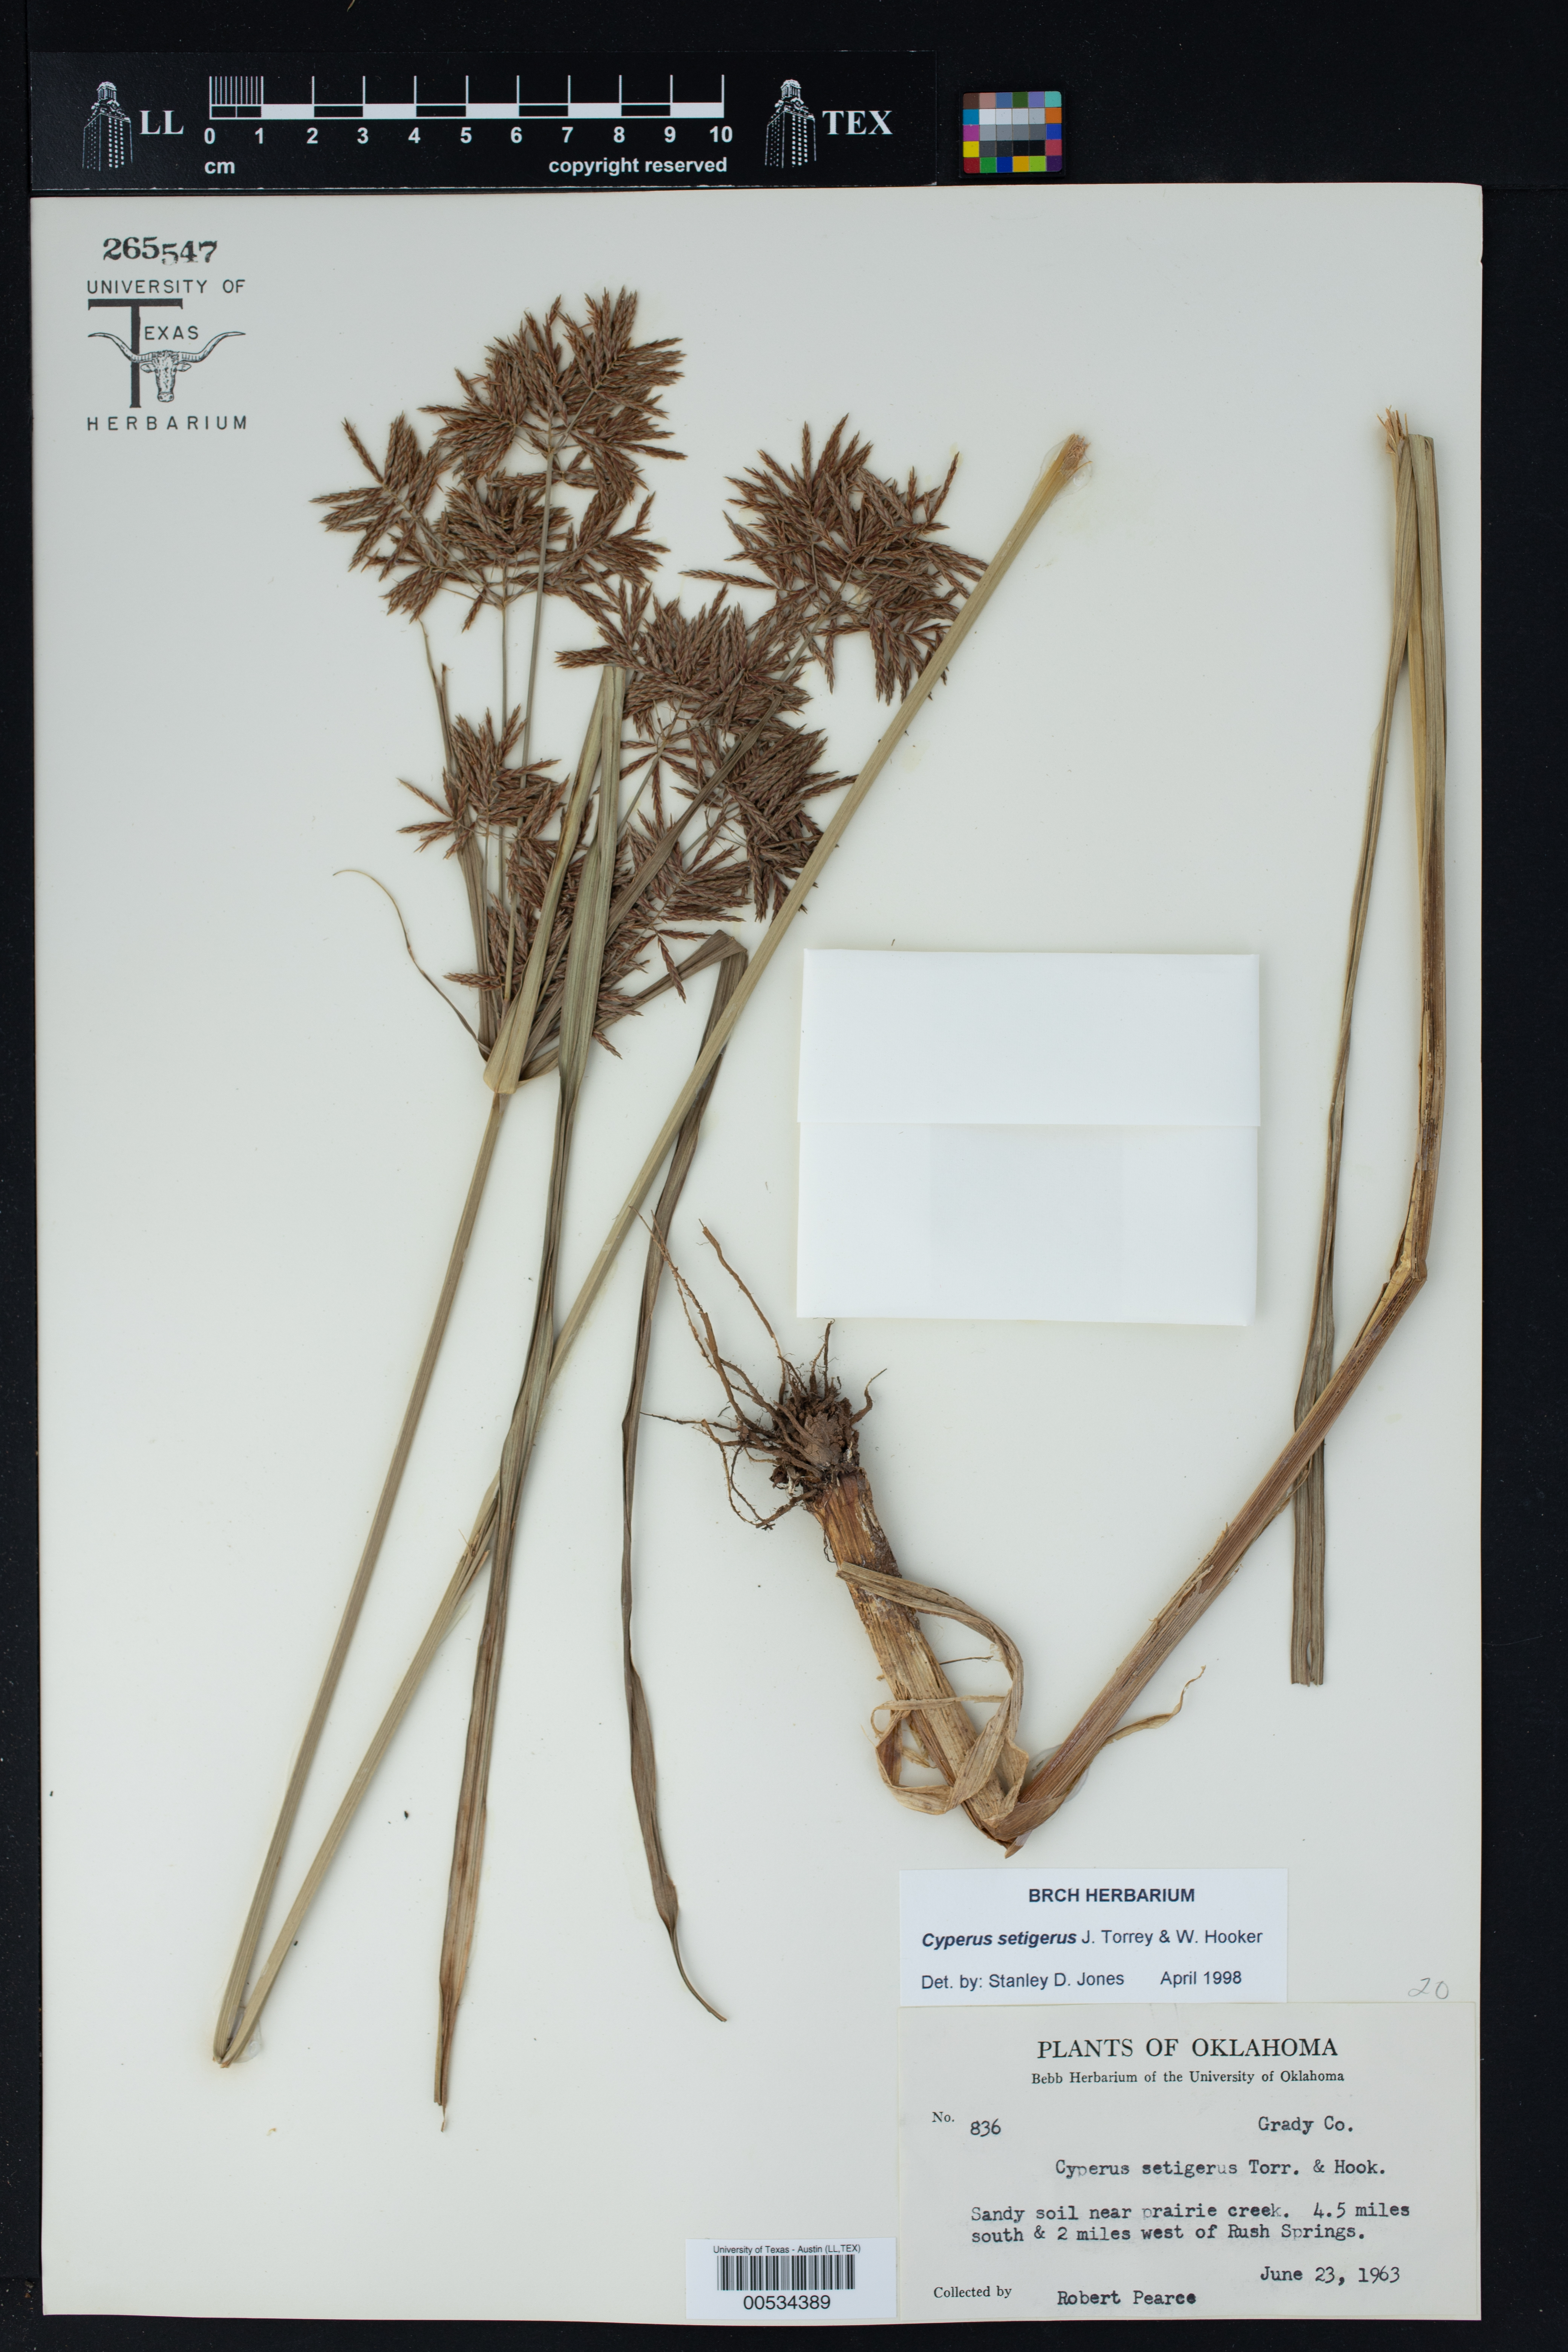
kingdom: Plantae
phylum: Tracheophyta
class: Liliopsida
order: Poales
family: Cyperaceae
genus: Cyperus
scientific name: Cyperus setigerus
